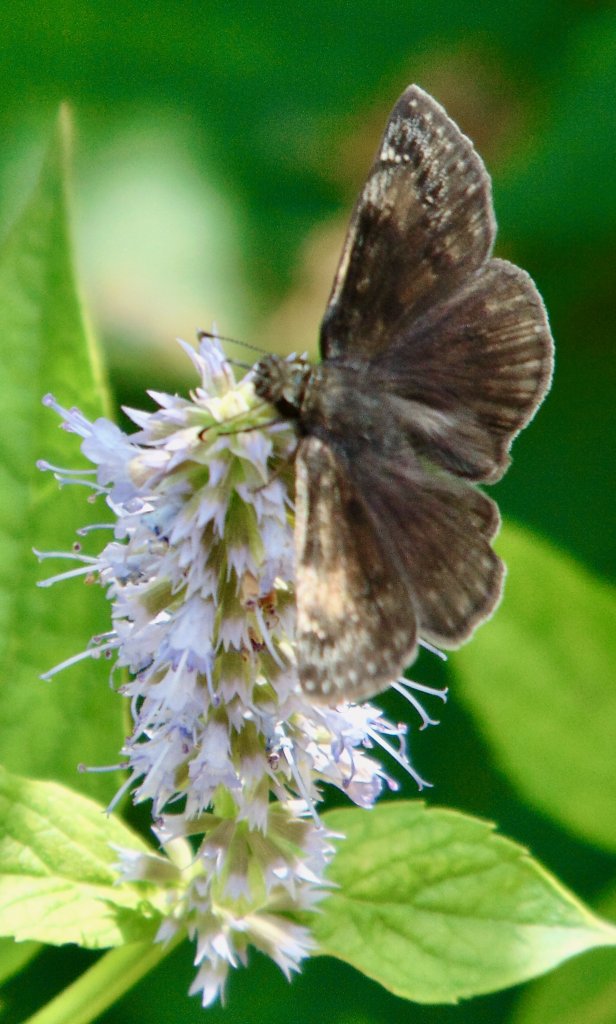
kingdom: Animalia
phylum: Arthropoda
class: Insecta
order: Lepidoptera
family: Hesperiidae
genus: Gesta
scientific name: Gesta
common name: Wild Indigo Duskywing
